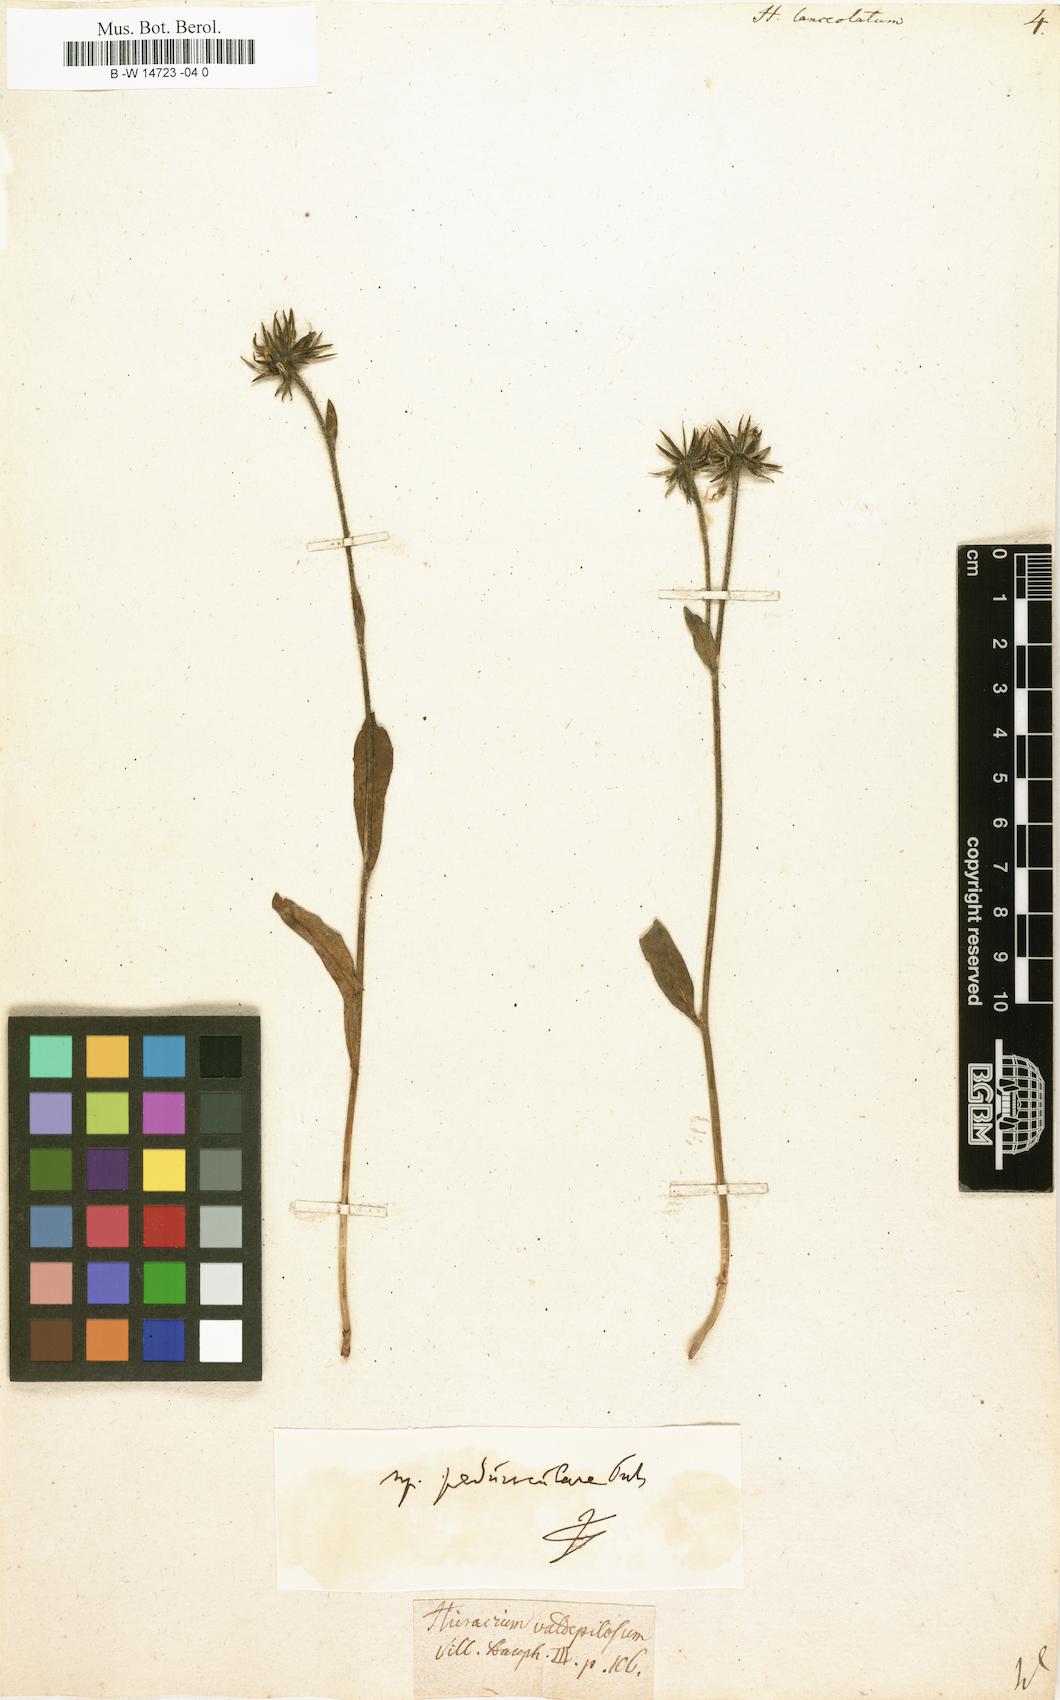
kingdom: Plantae
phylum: Tracheophyta
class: Magnoliopsida
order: Asterales
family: Asteraceae
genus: Hieracium
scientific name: Hieracium lanceolatum
